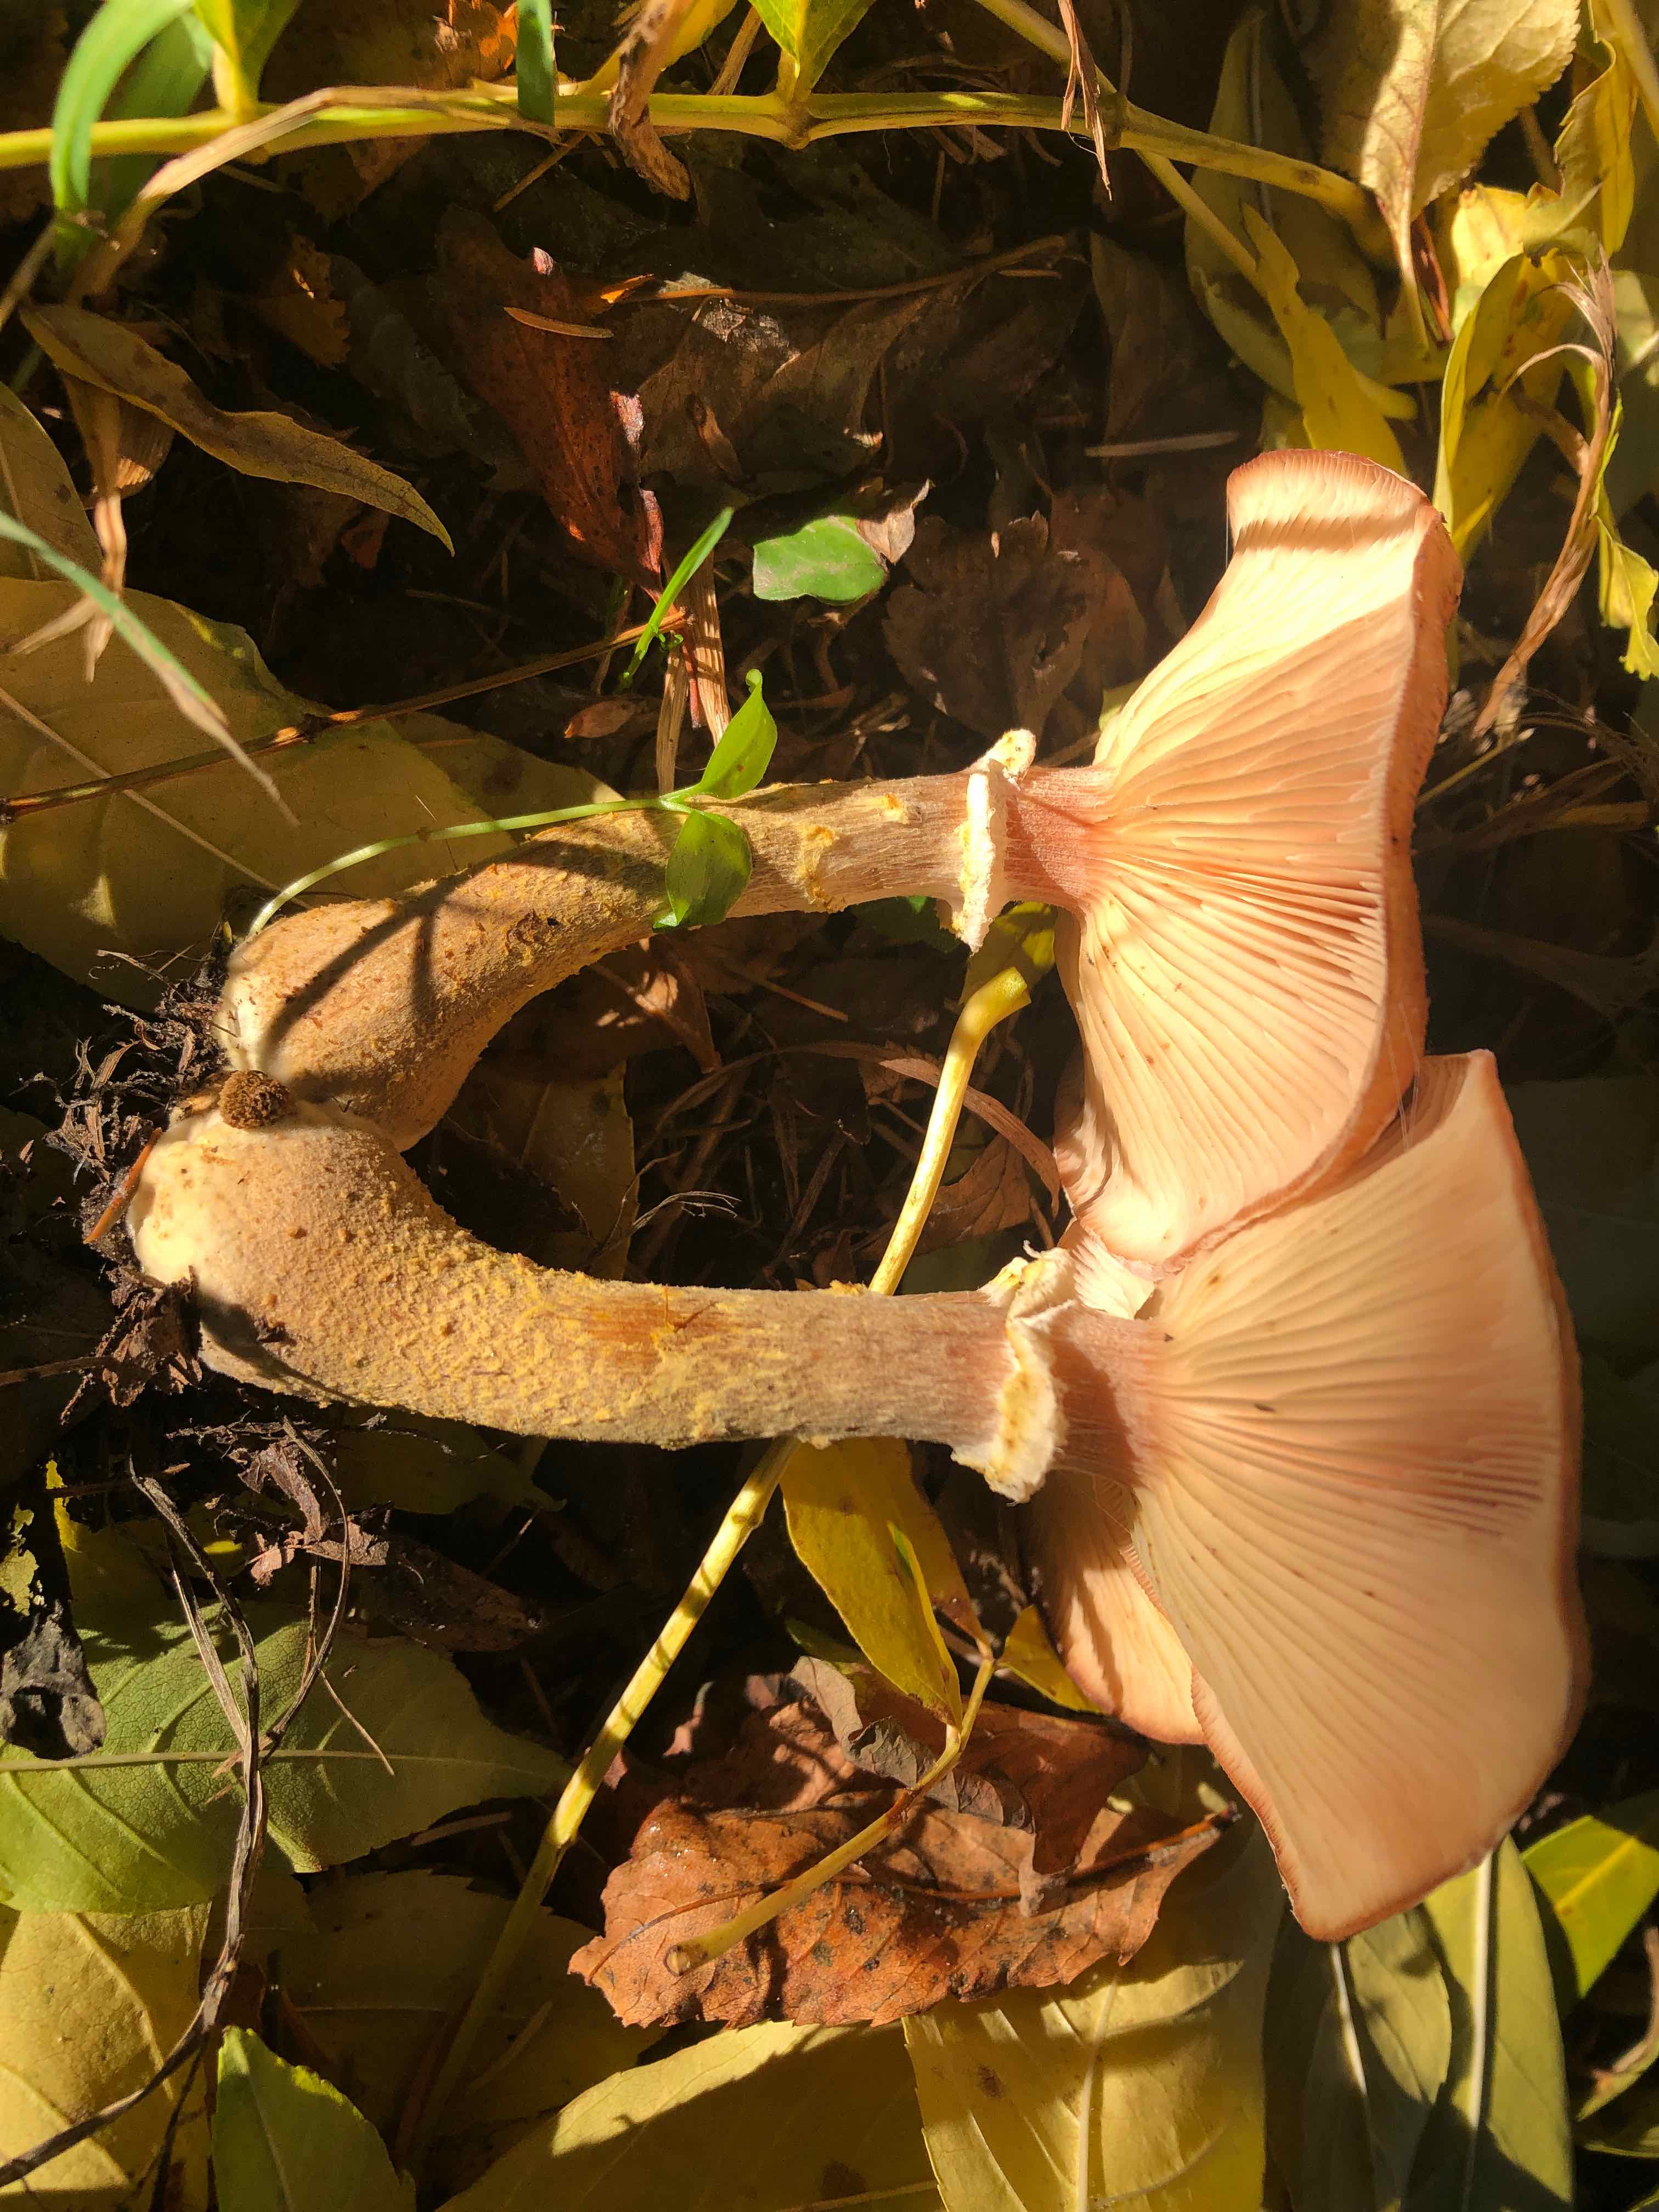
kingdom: Fungi
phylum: Basidiomycota
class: Agaricomycetes
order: Agaricales
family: Physalacriaceae
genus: Armillaria
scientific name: Armillaria lutea
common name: køllestokket honningsvamp
